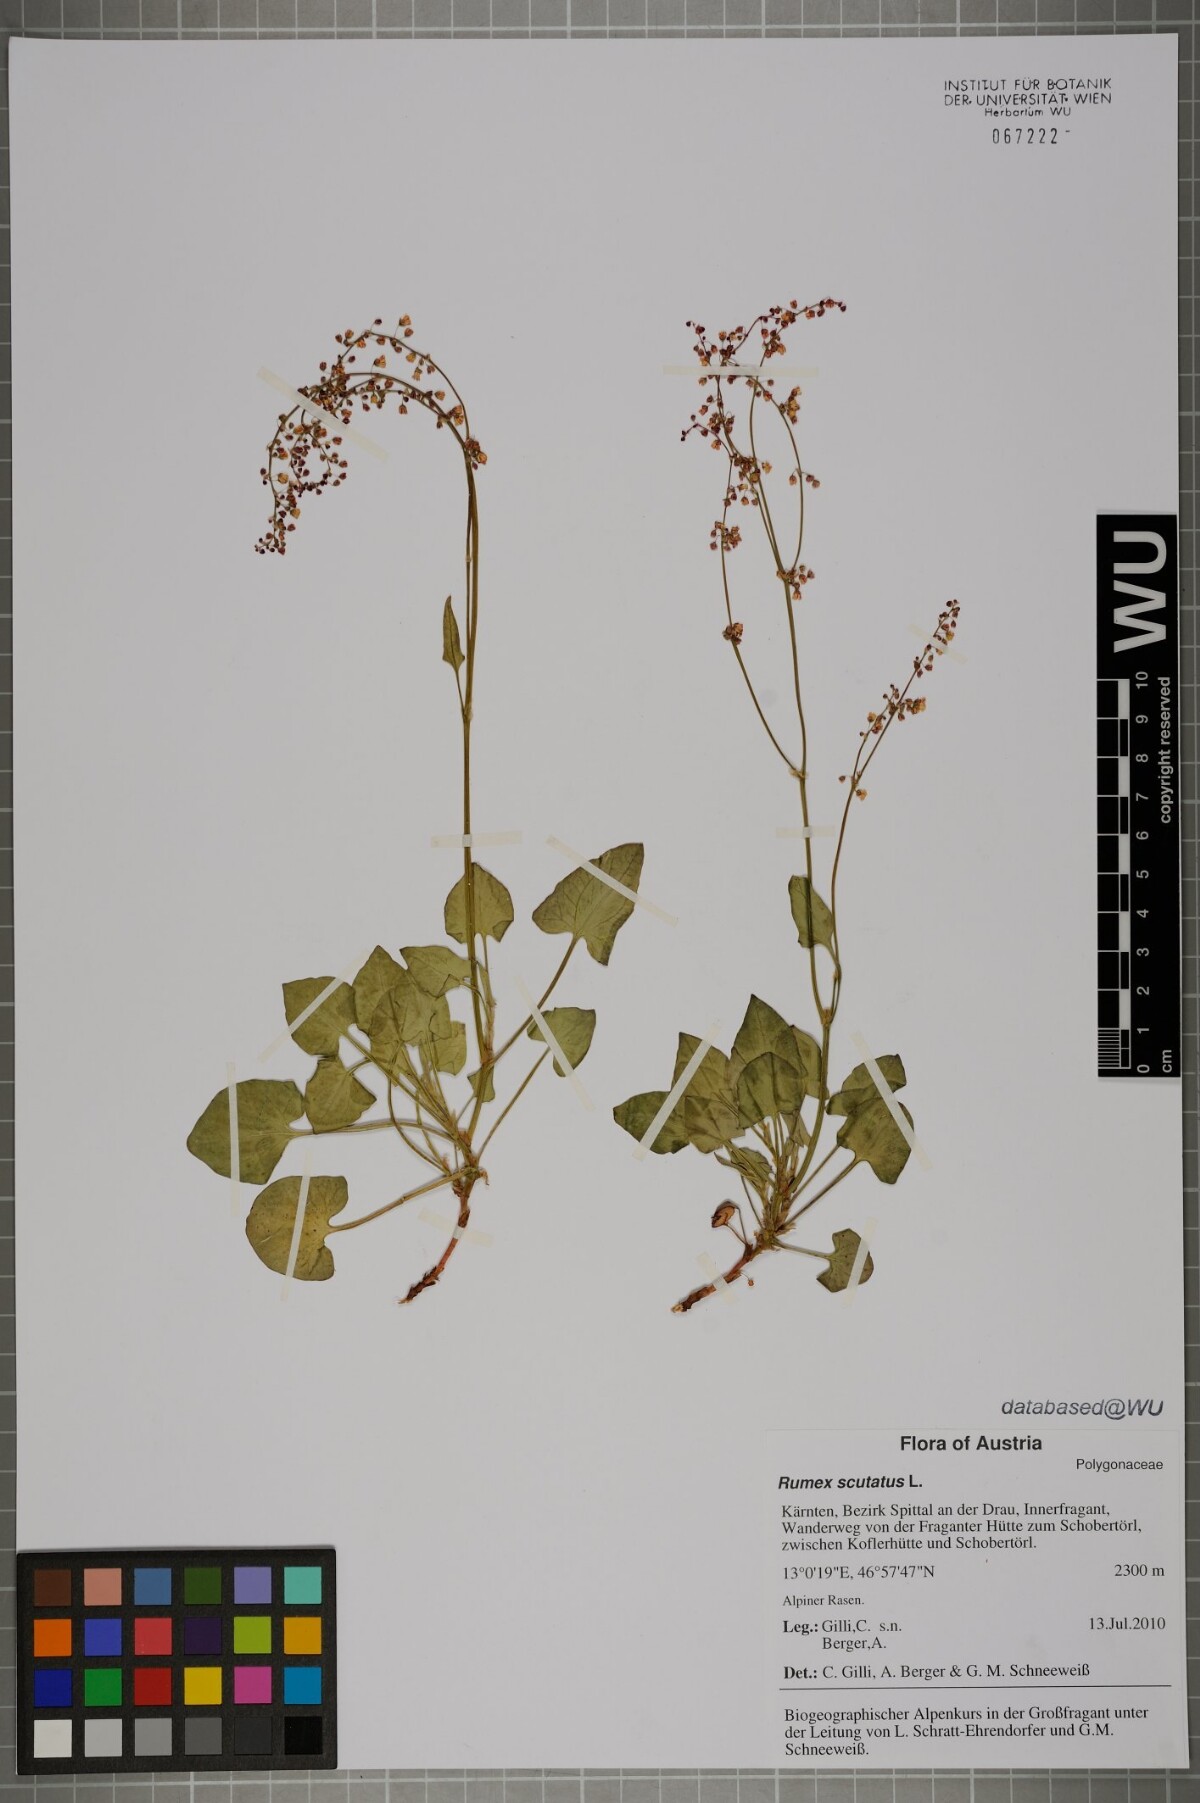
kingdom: Plantae
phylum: Tracheophyta
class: Magnoliopsida
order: Caryophyllales
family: Polygonaceae
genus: Rumex
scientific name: Rumex scutatus
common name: French sorrel
